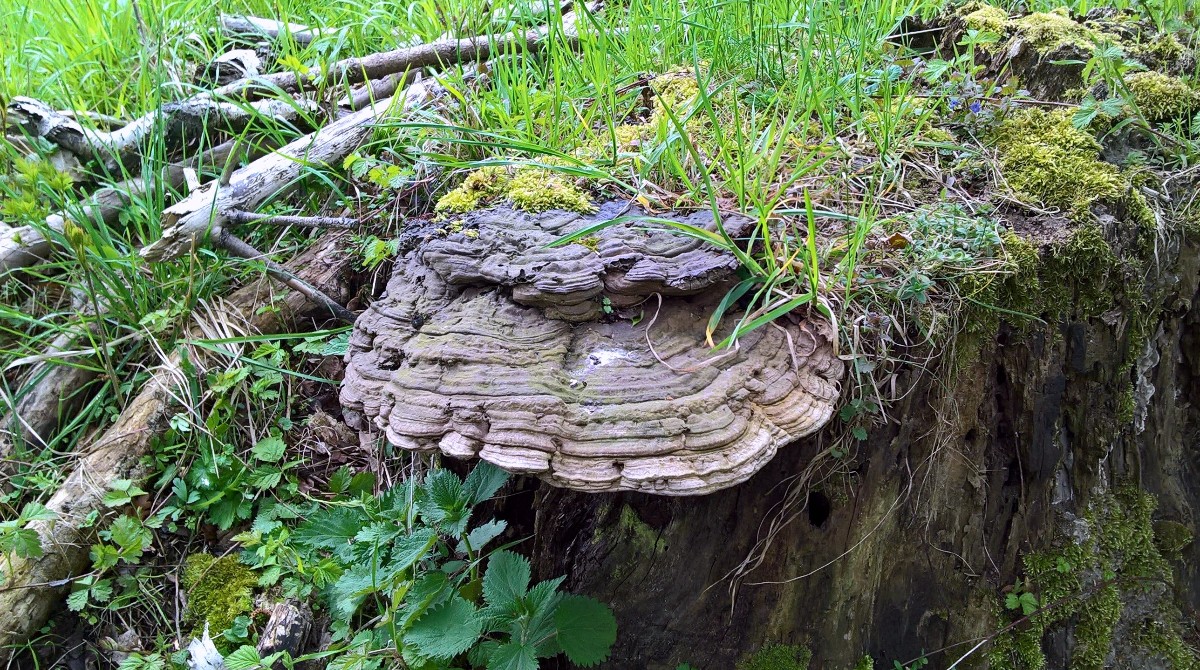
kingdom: Fungi
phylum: Basidiomycota
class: Agaricomycetes
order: Polyporales
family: Polyporaceae
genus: Ganoderma
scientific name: Ganoderma applanatum
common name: flad lakporesvamp
